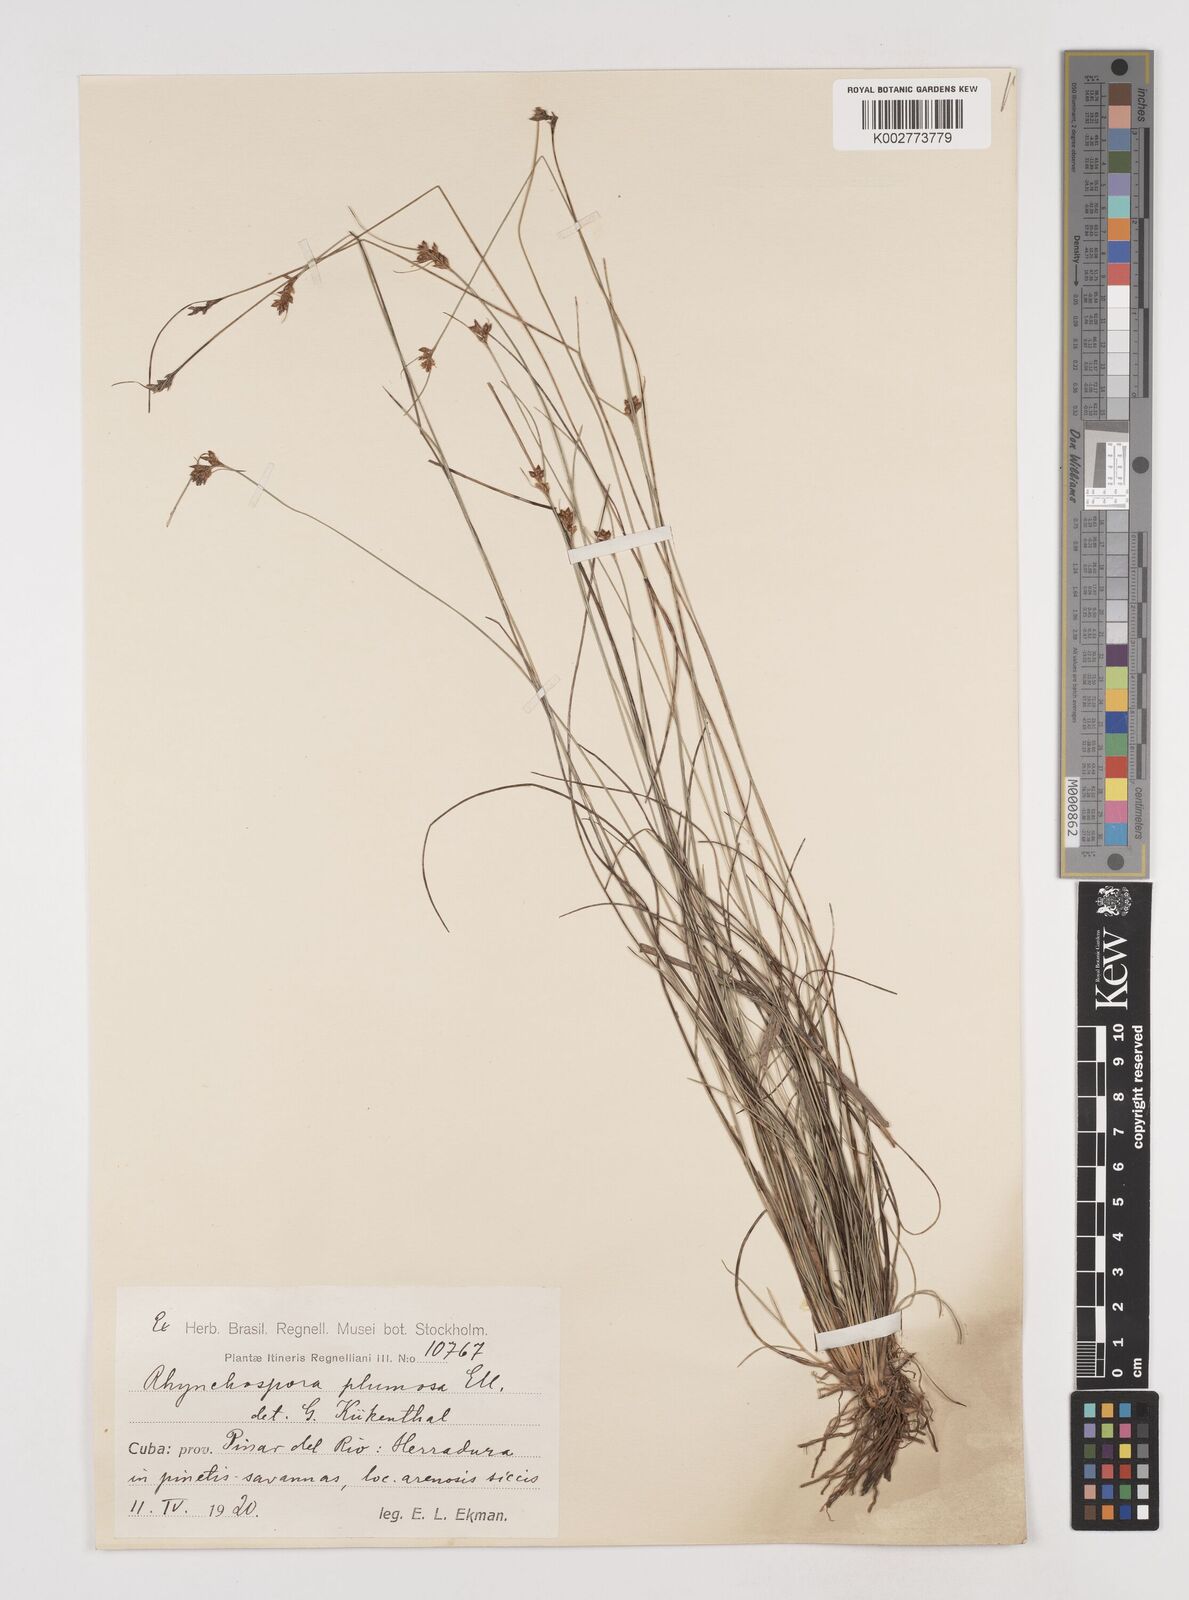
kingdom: Plantae
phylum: Tracheophyta
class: Liliopsida
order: Poales
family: Cyperaceae
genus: Rhynchospora
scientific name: Rhynchospora plumosa
